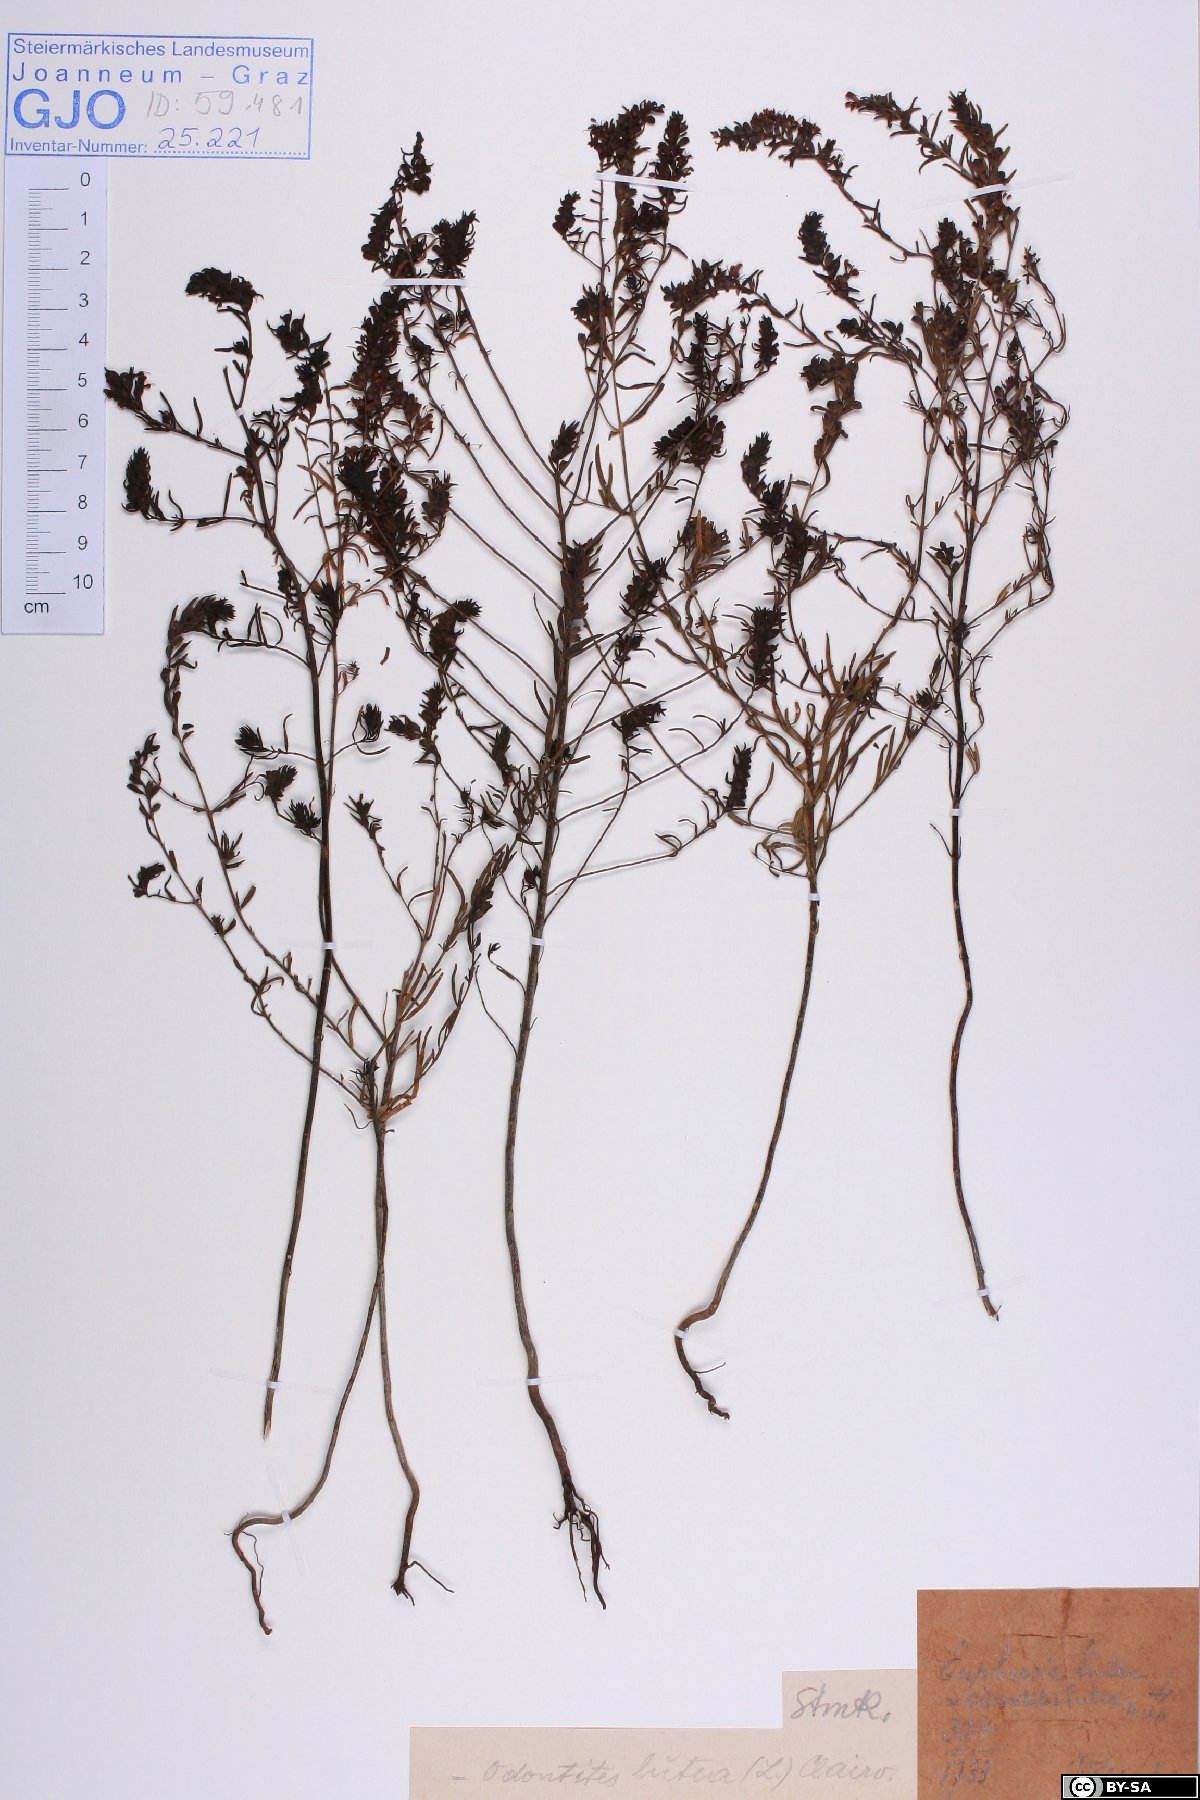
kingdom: Plantae
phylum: Tracheophyta
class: Magnoliopsida
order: Lamiales
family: Orobanchaceae
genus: Odontites
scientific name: Odontites luteus
